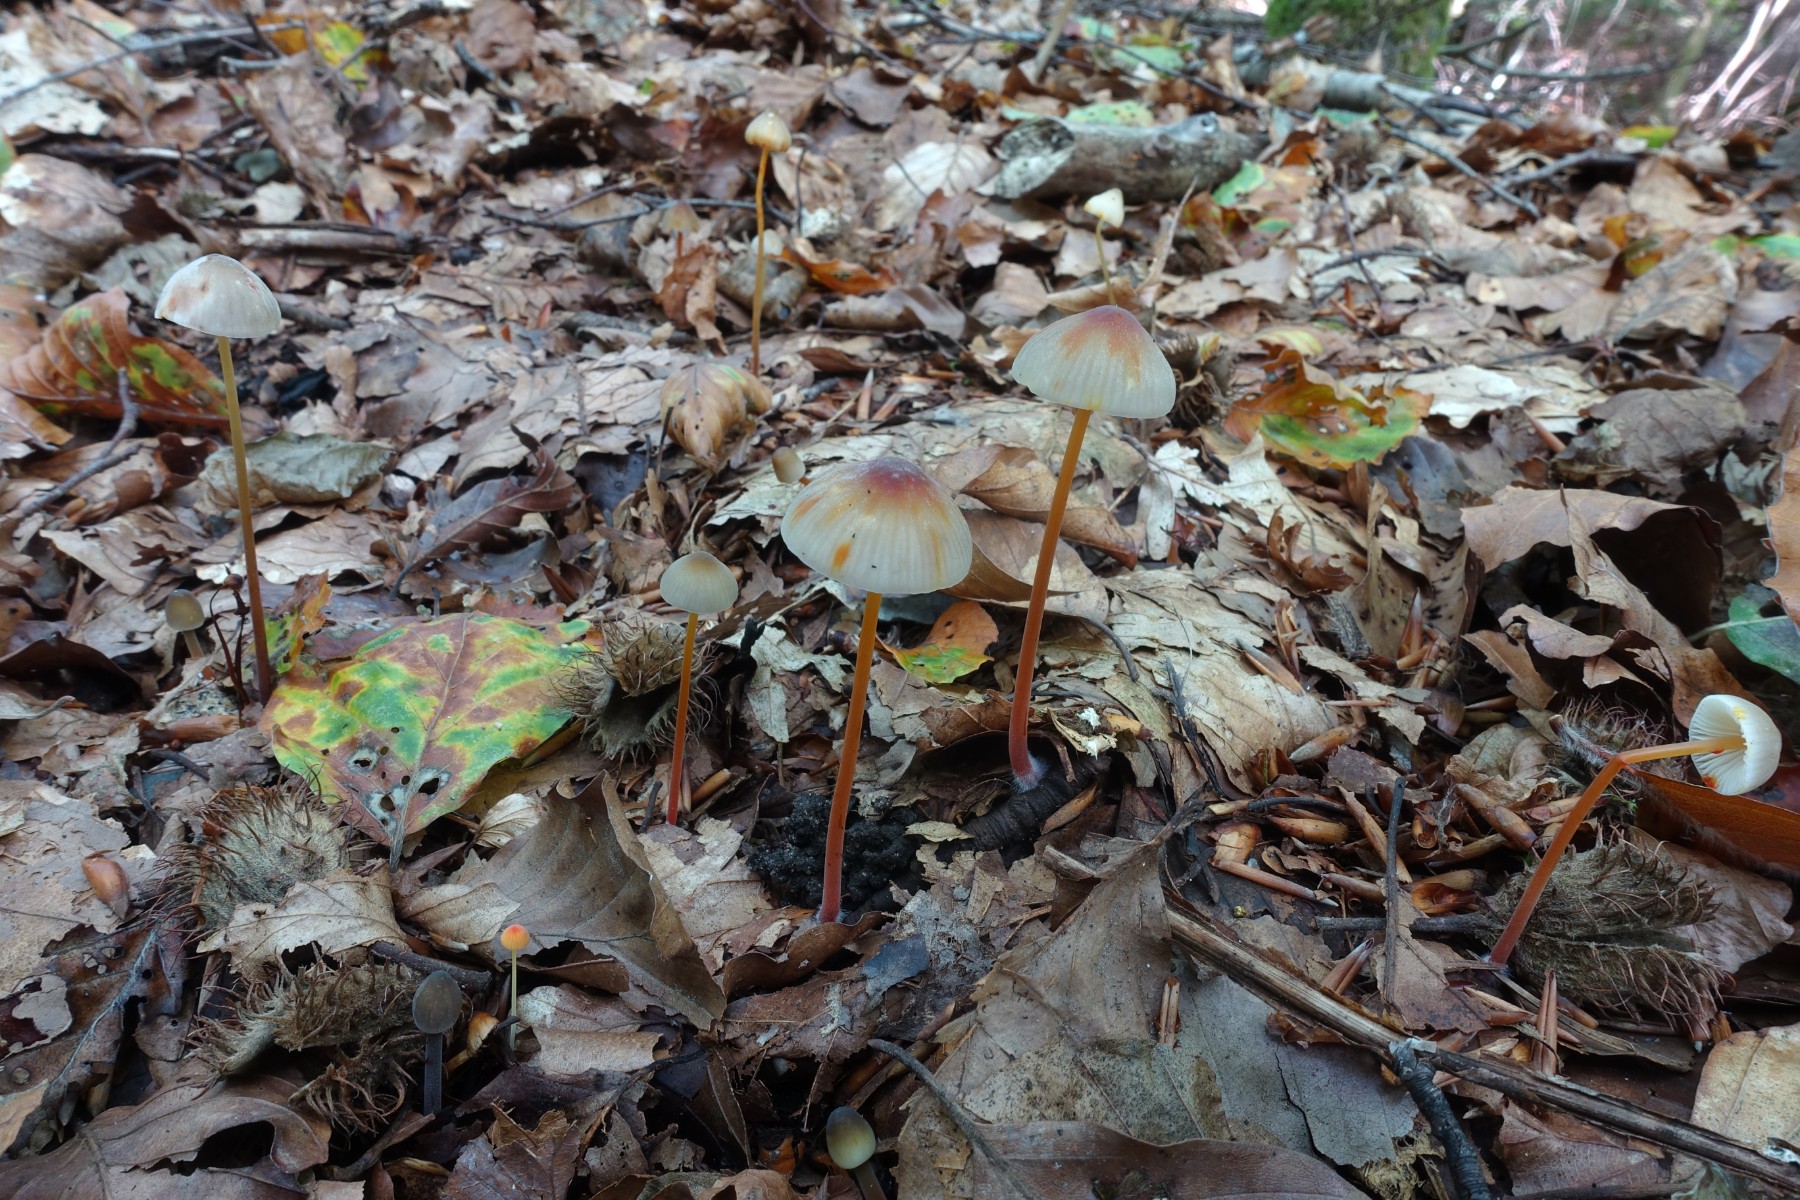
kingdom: Fungi
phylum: Basidiomycota
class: Agaricomycetes
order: Agaricales
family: Mycenaceae
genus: Mycena
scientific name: Mycena acicula
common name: orange huesvamp
